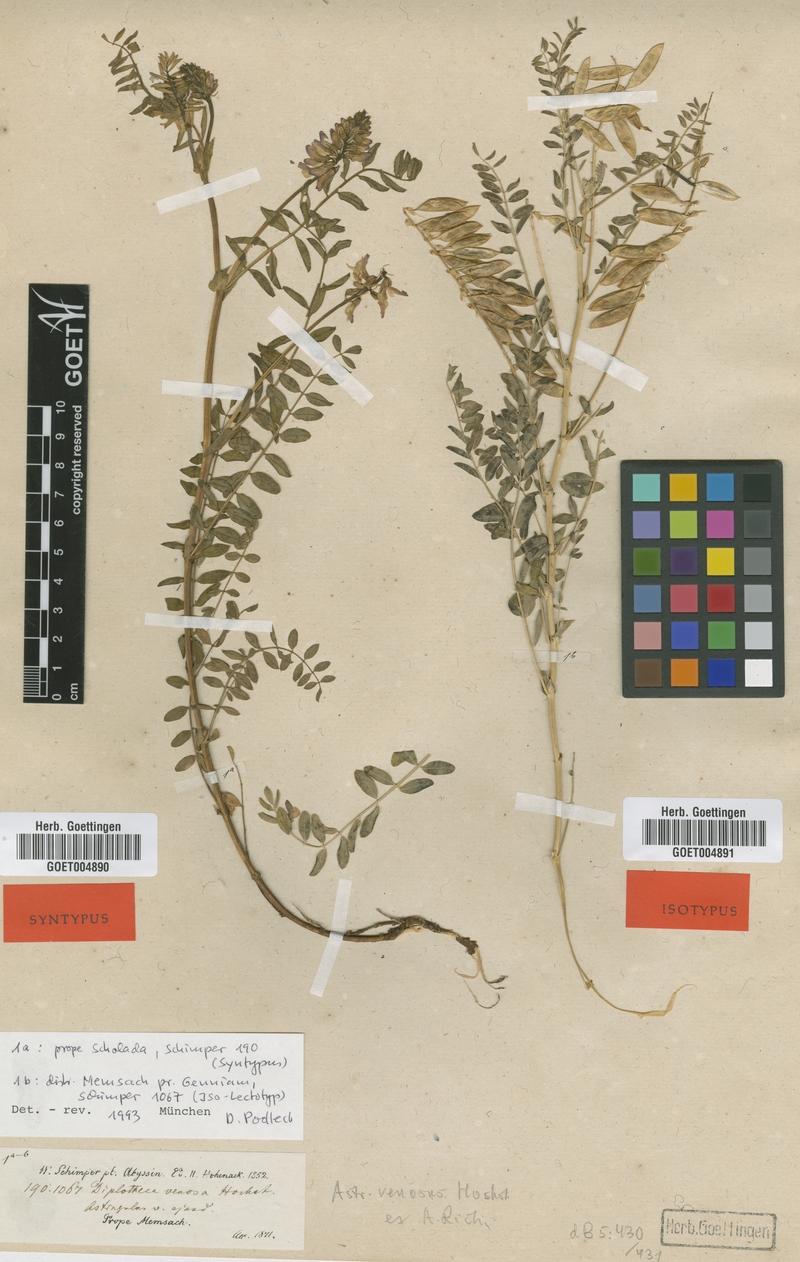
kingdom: Plantae
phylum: Tracheophyta
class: Magnoliopsida
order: Fabales
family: Fabaceae
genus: Astragalus
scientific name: Astragalus atropilosulus
